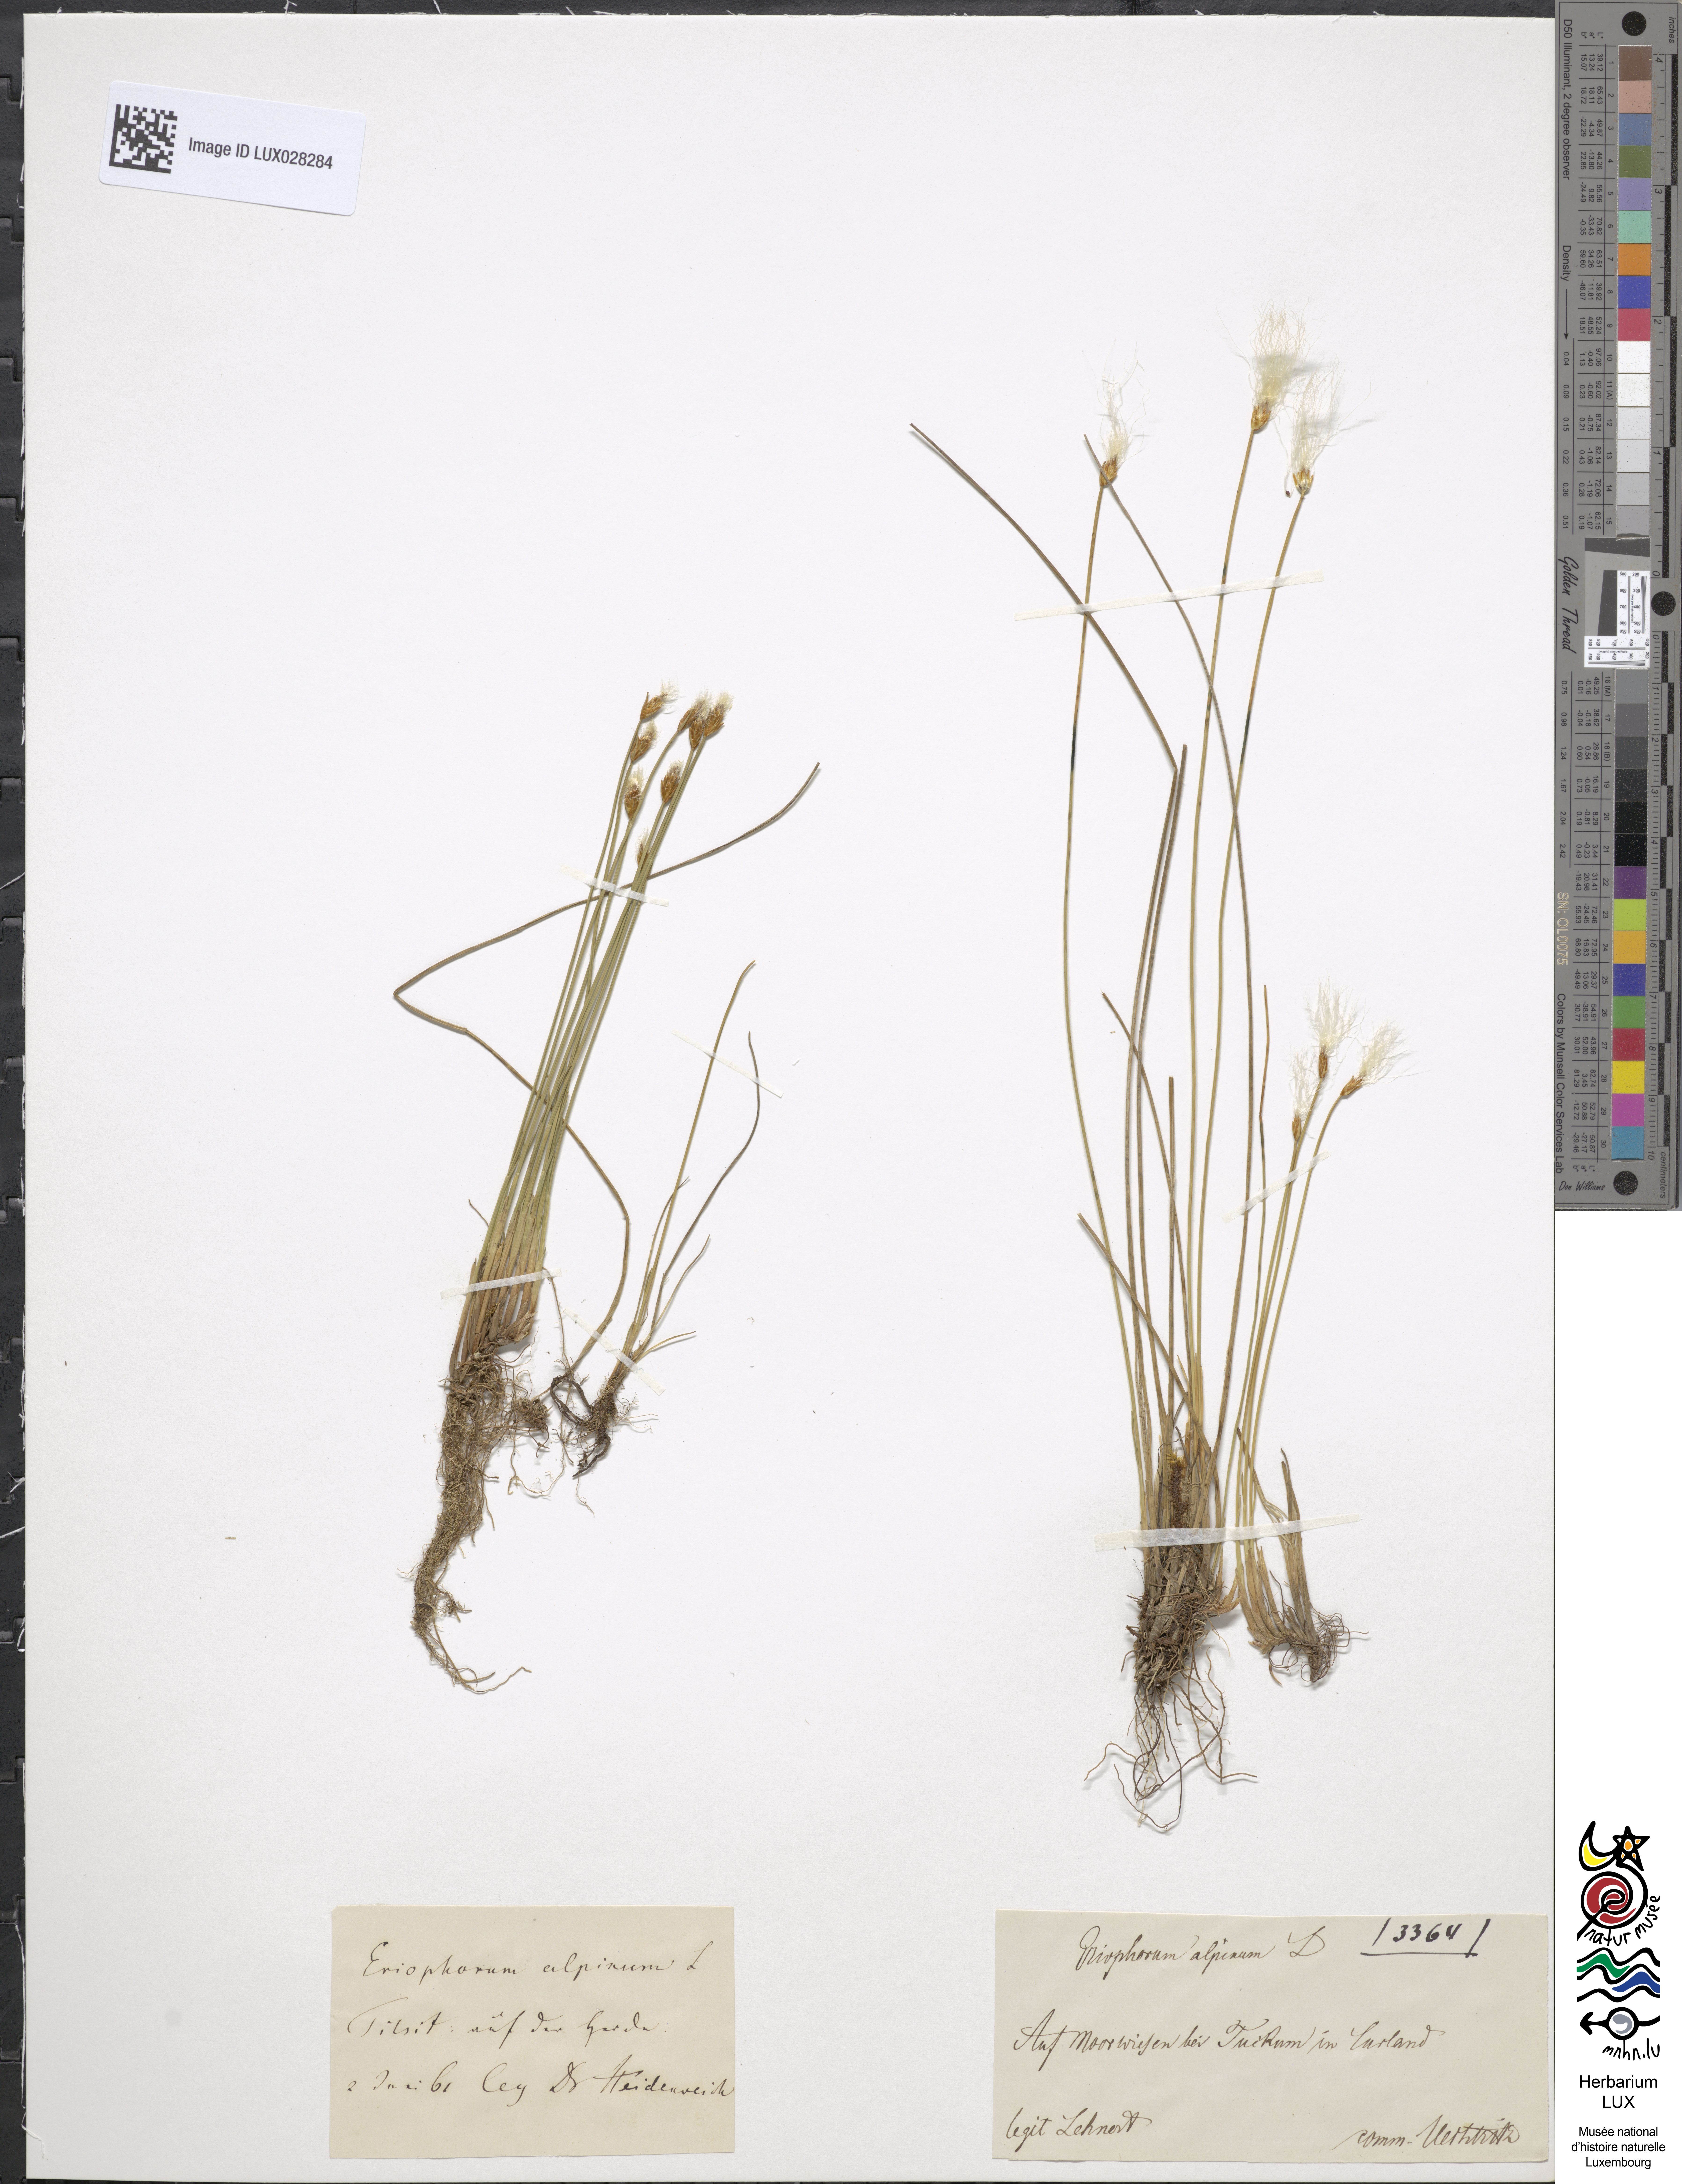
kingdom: Plantae
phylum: Tracheophyta
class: Liliopsida
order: Poales
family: Cyperaceae
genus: Trichophorum
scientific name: Trichophorum alpinum
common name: Alpine bulrush
